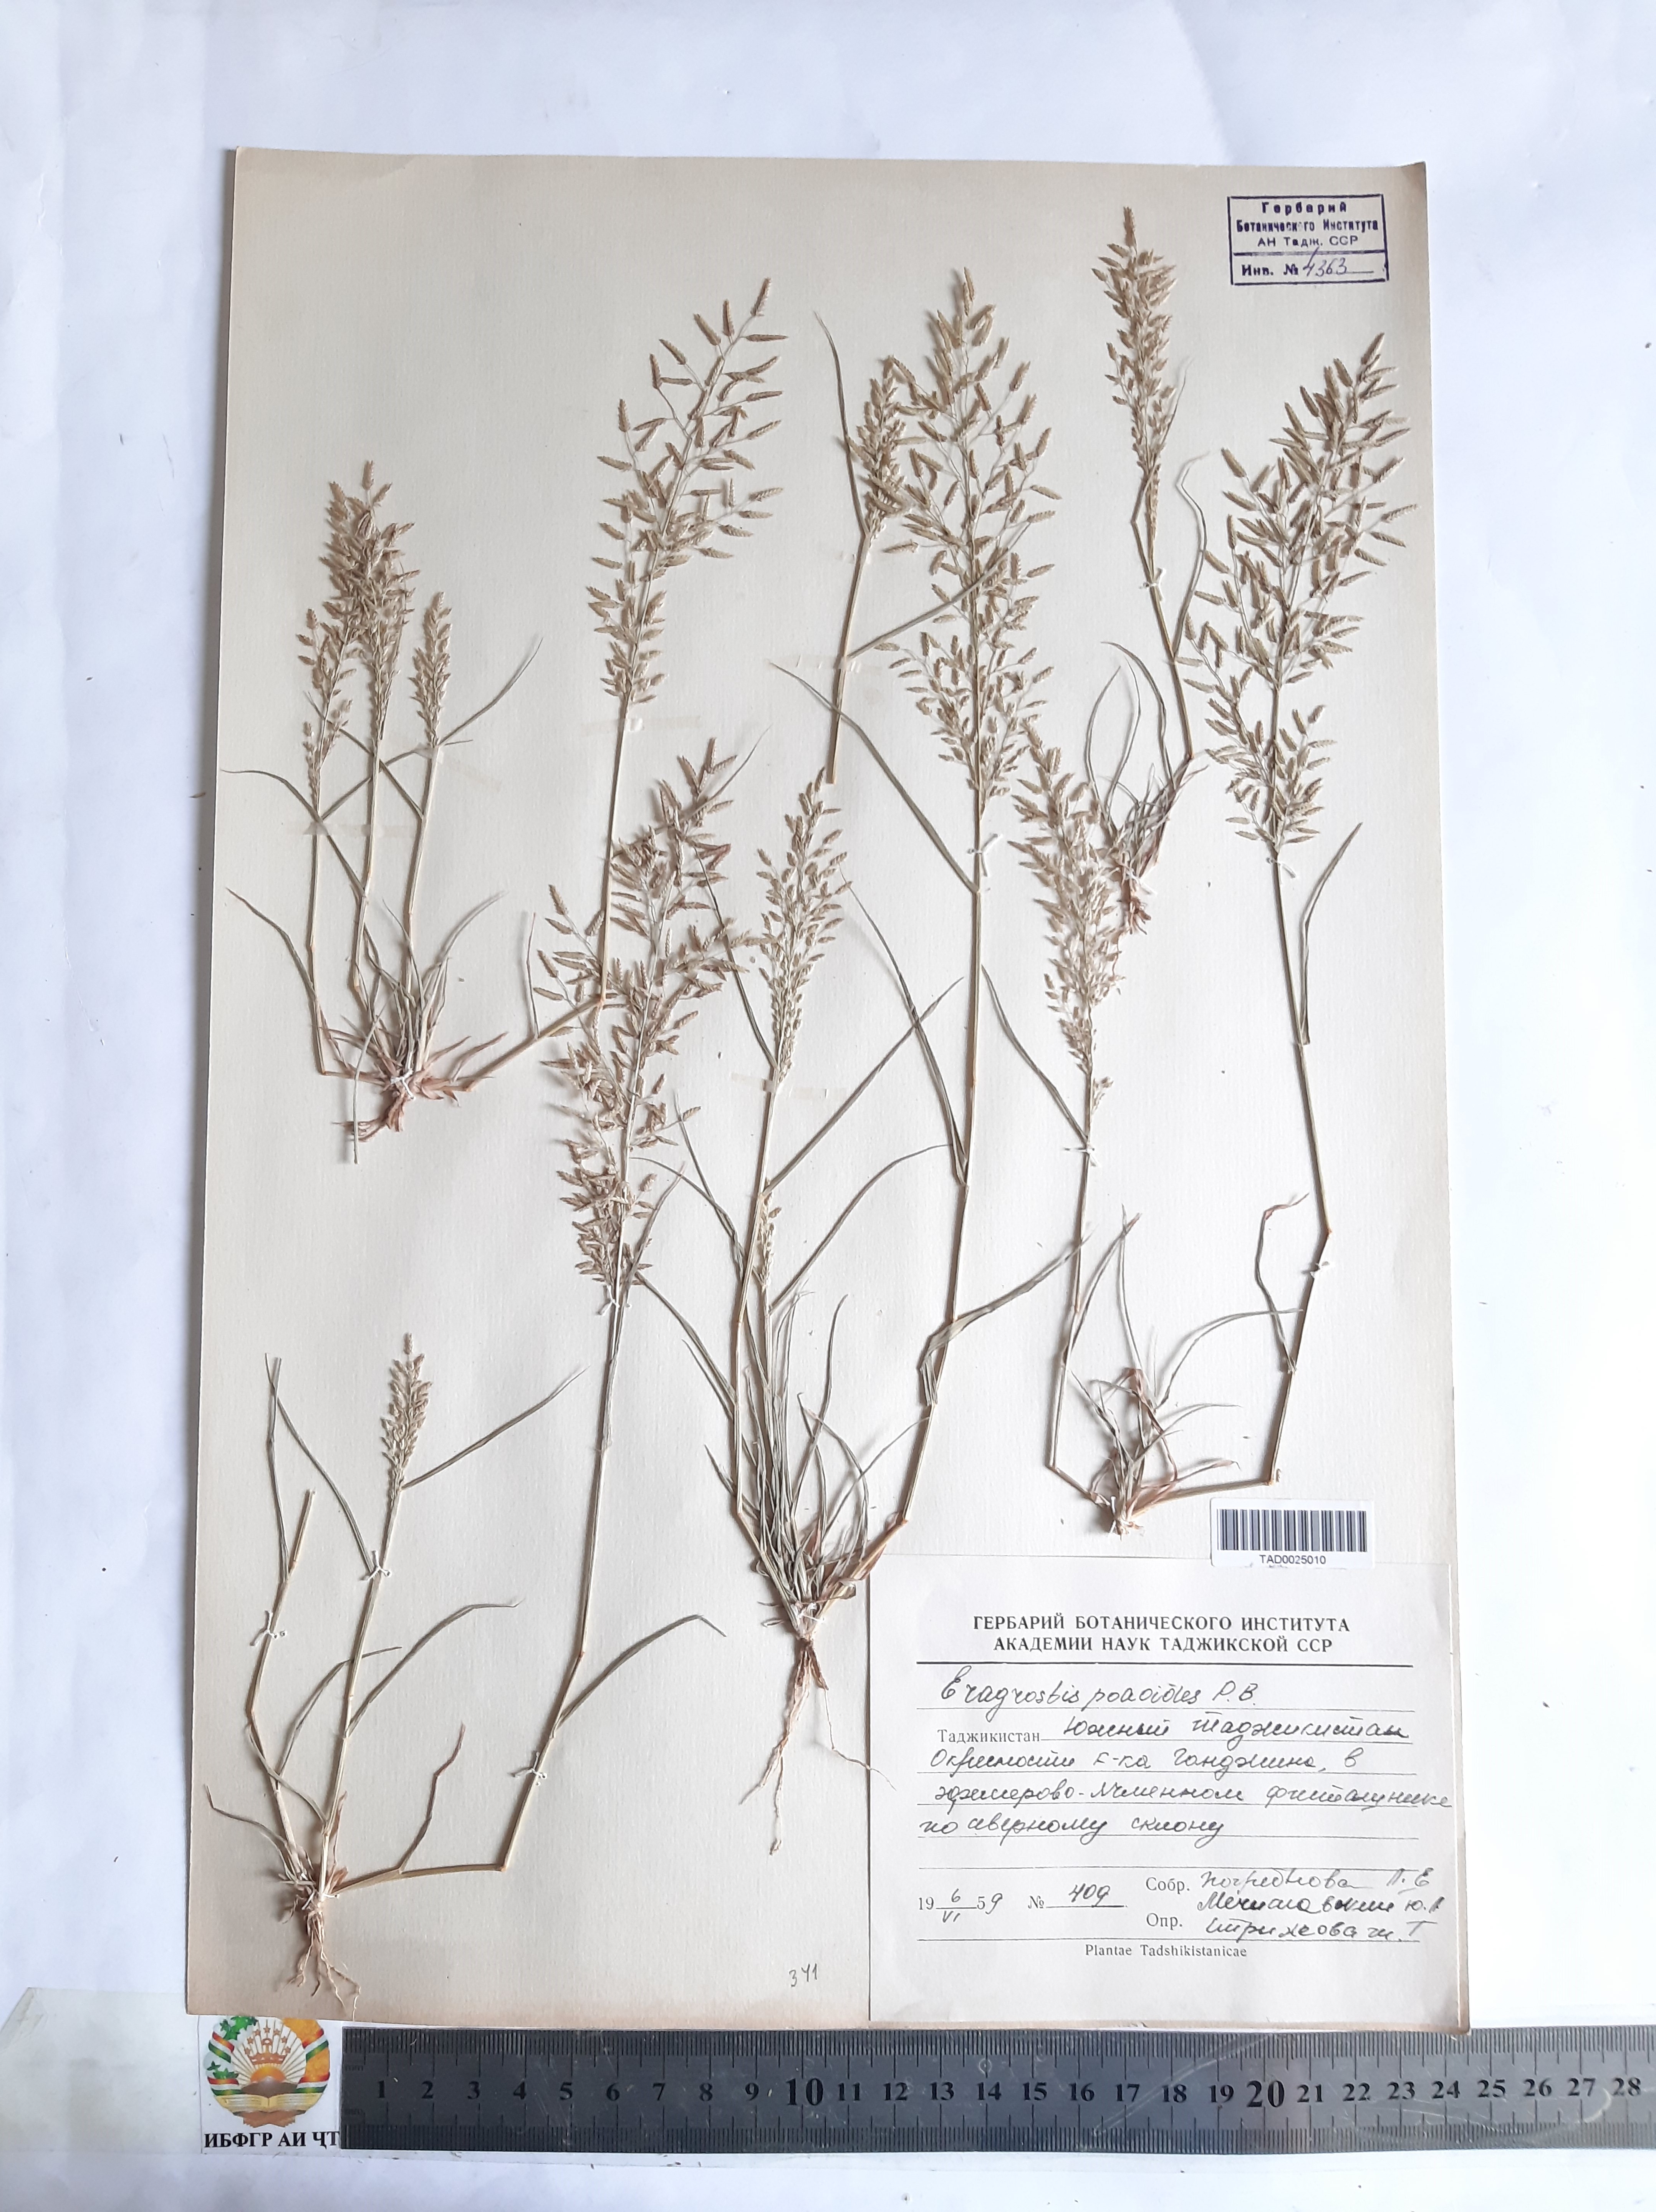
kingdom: Plantae
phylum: Tracheophyta
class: Liliopsida
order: Poales
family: Poaceae
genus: Eragrostis
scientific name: Eragrostis minor
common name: Small love-grass
